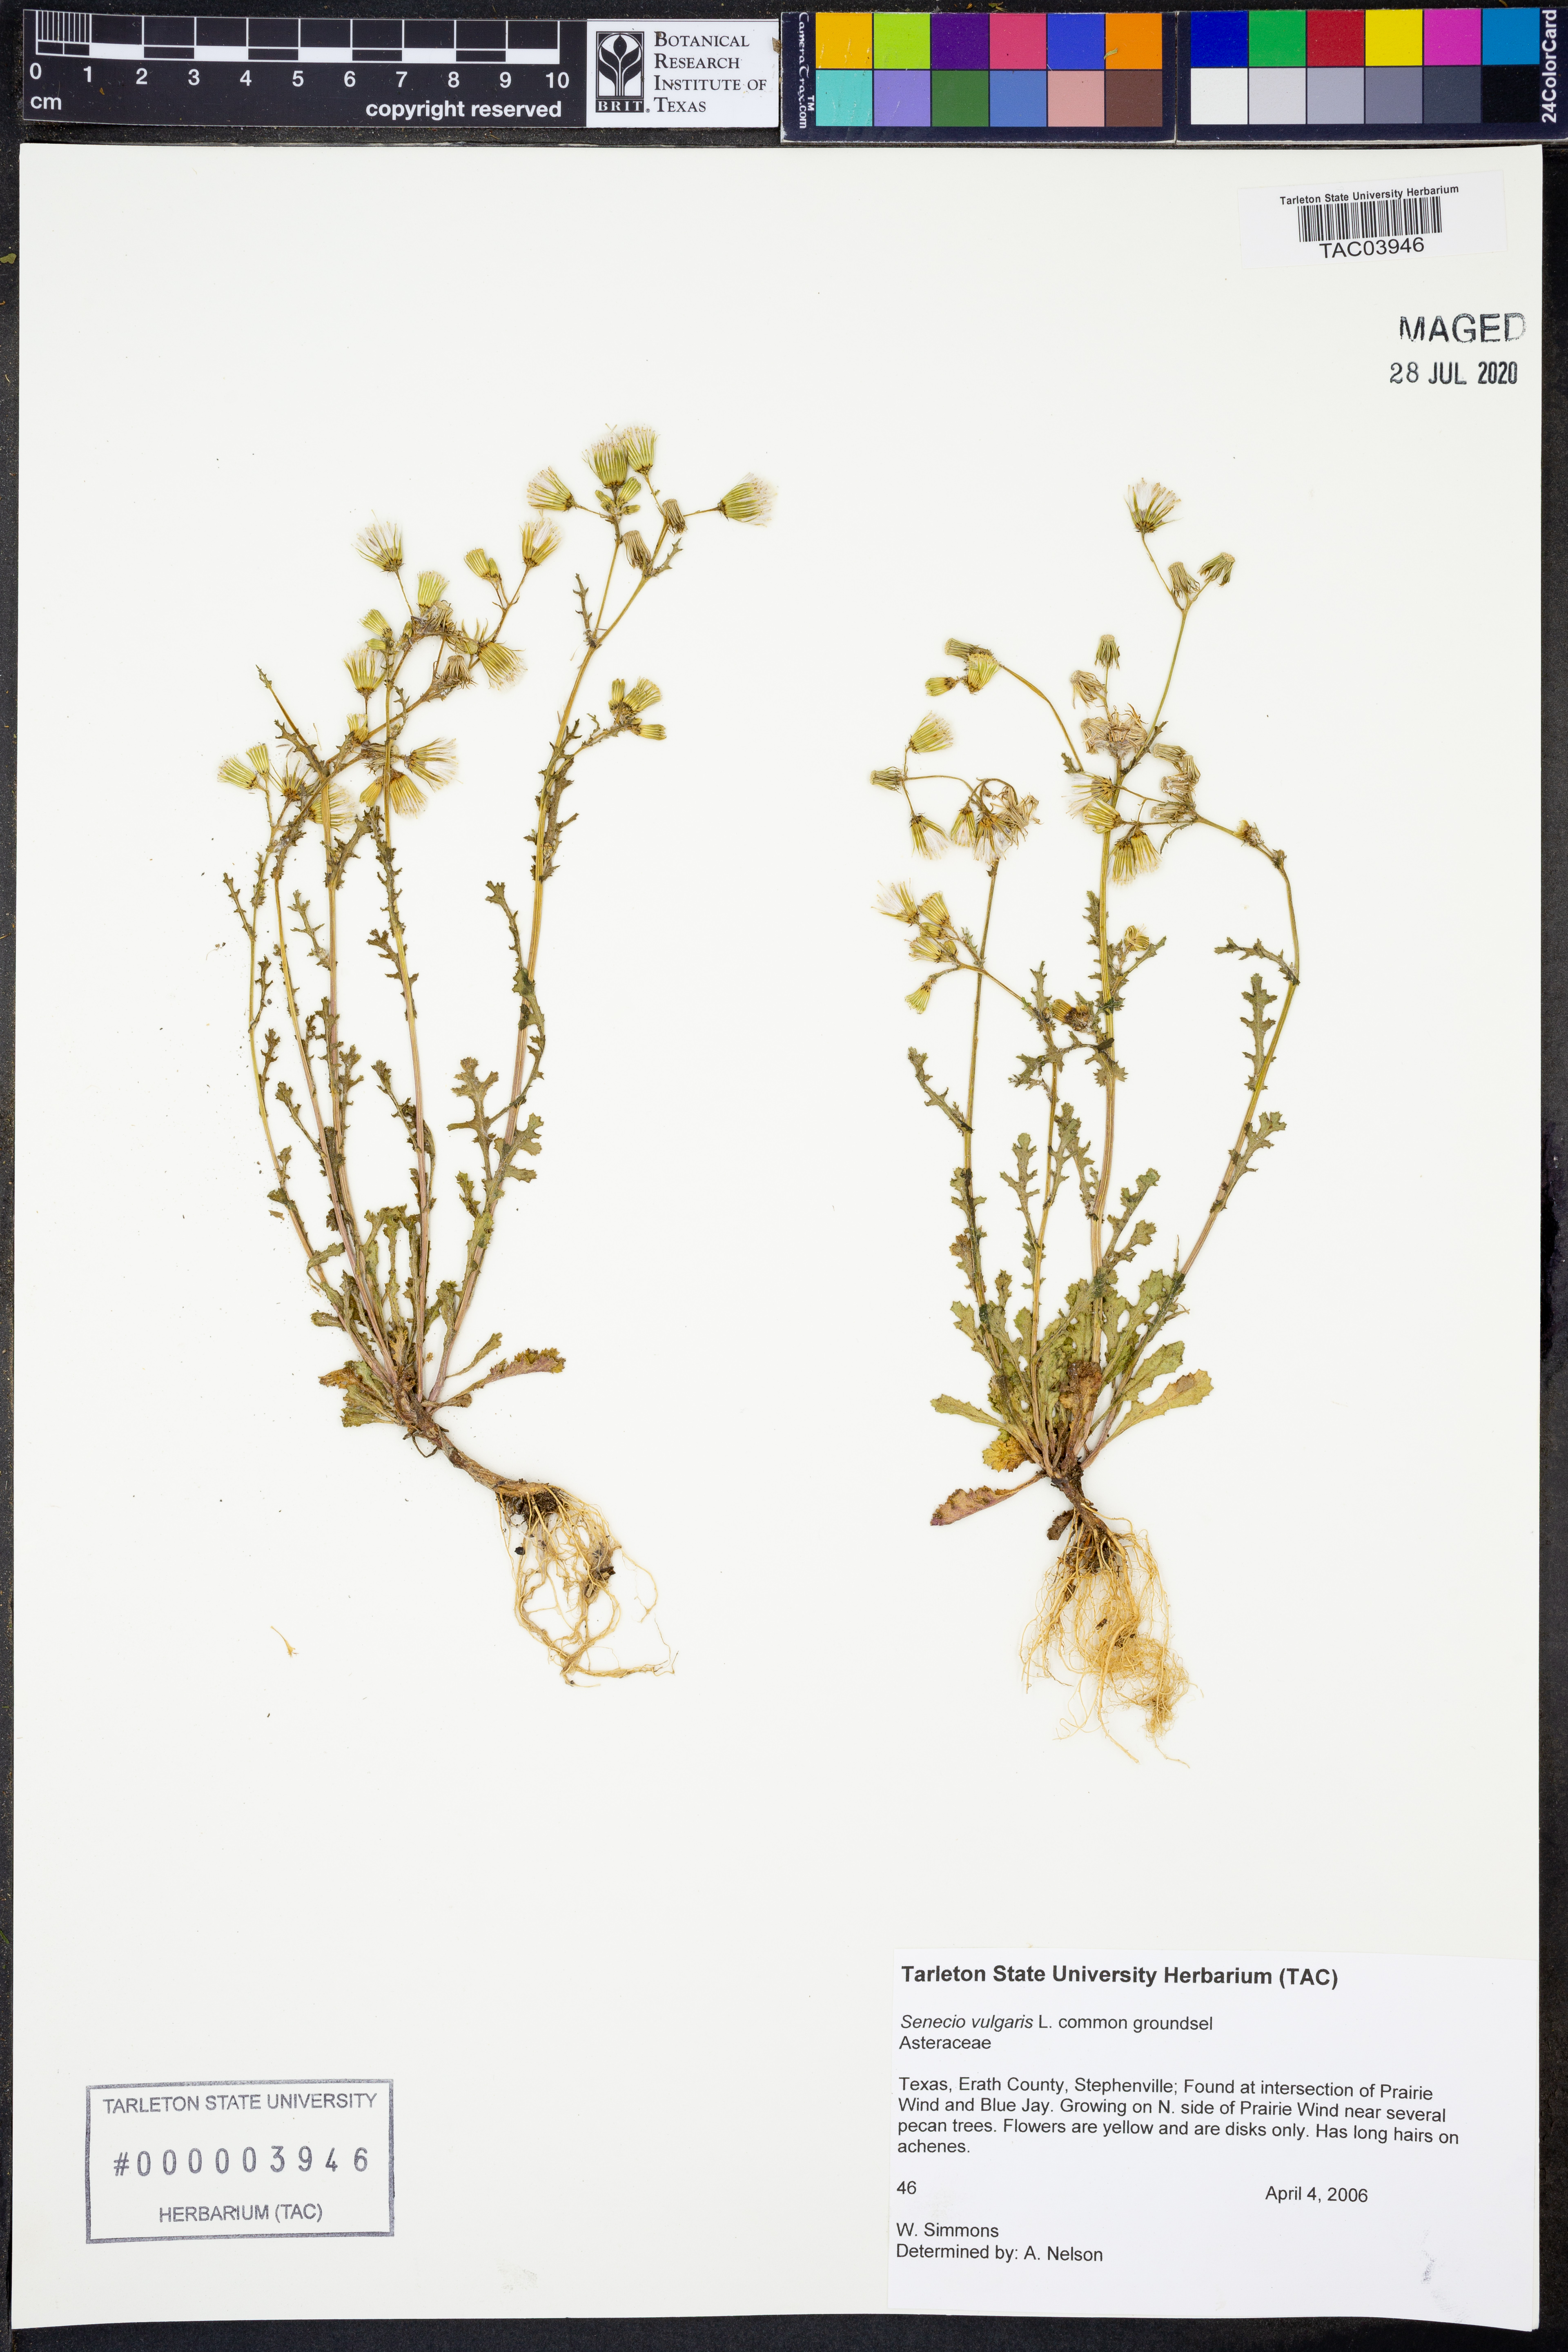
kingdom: Plantae
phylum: Tracheophyta
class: Magnoliopsida
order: Asterales
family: Asteraceae
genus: Senecio
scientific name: Senecio vulgaris
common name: Old-man-in-the-spring
